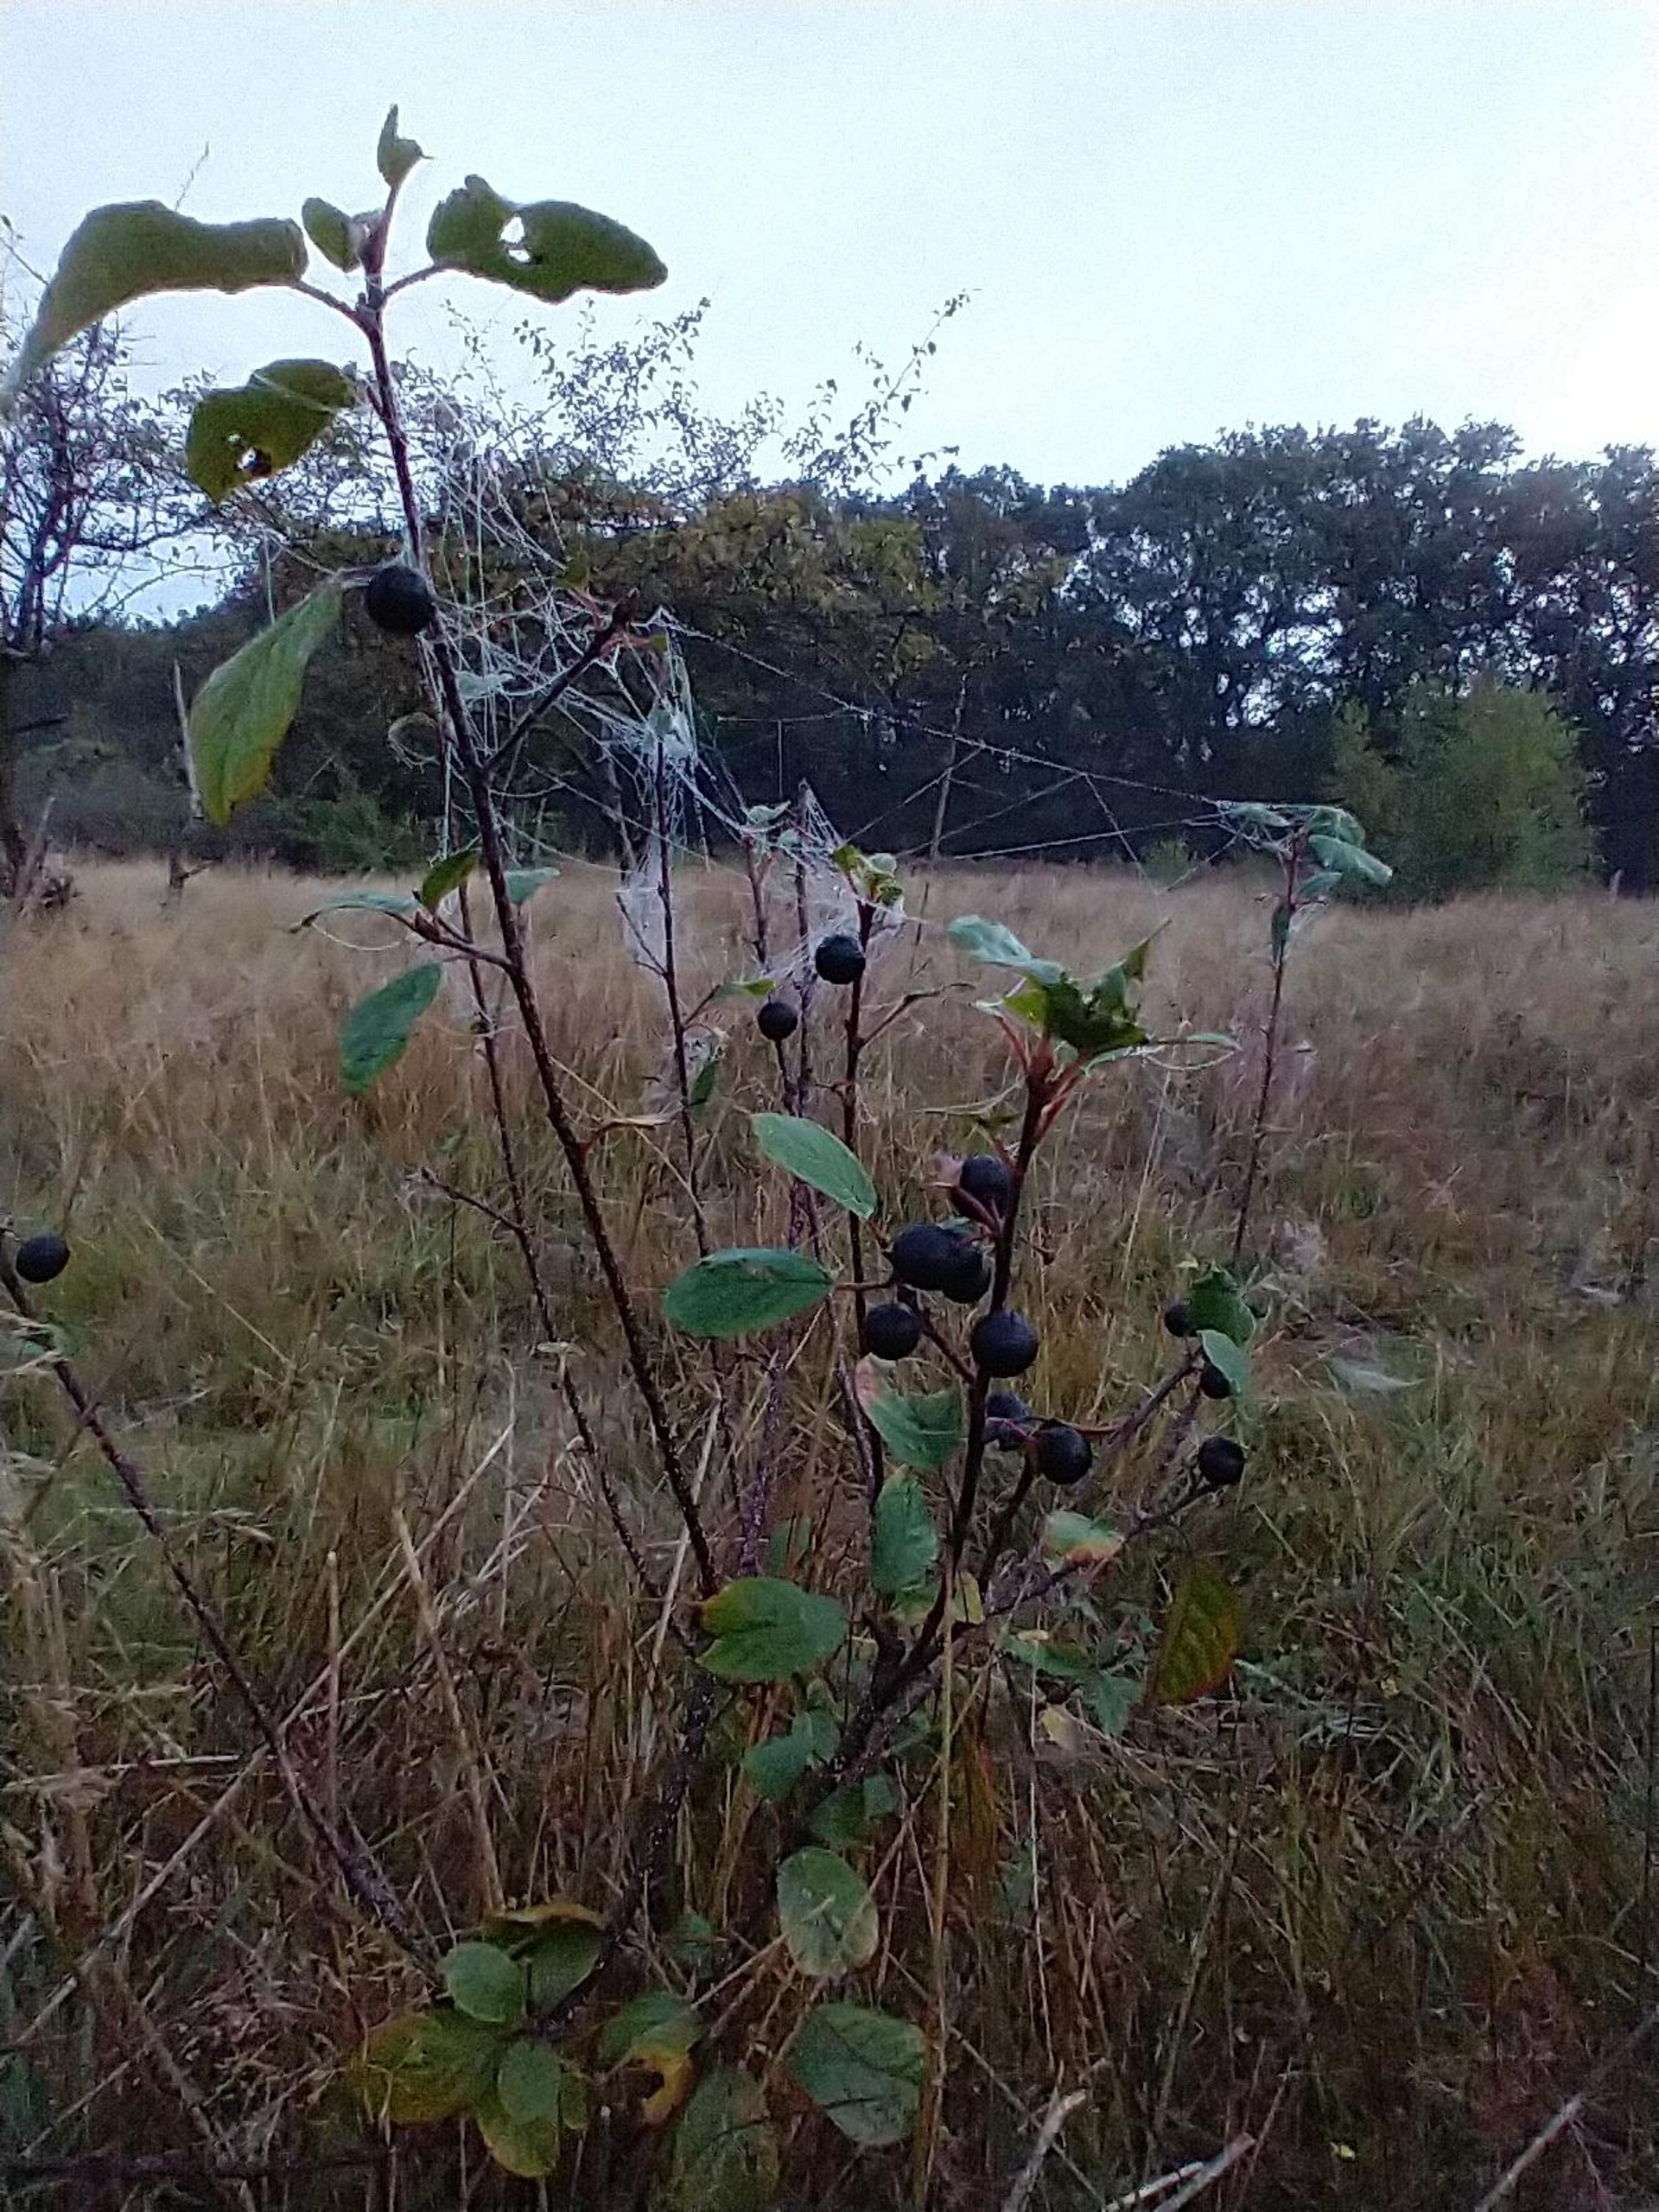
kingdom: Plantae
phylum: Tracheophyta
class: Magnoliopsida
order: Rosales
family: Rhamnaceae
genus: Frangula
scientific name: Frangula alnus
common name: Tørst
